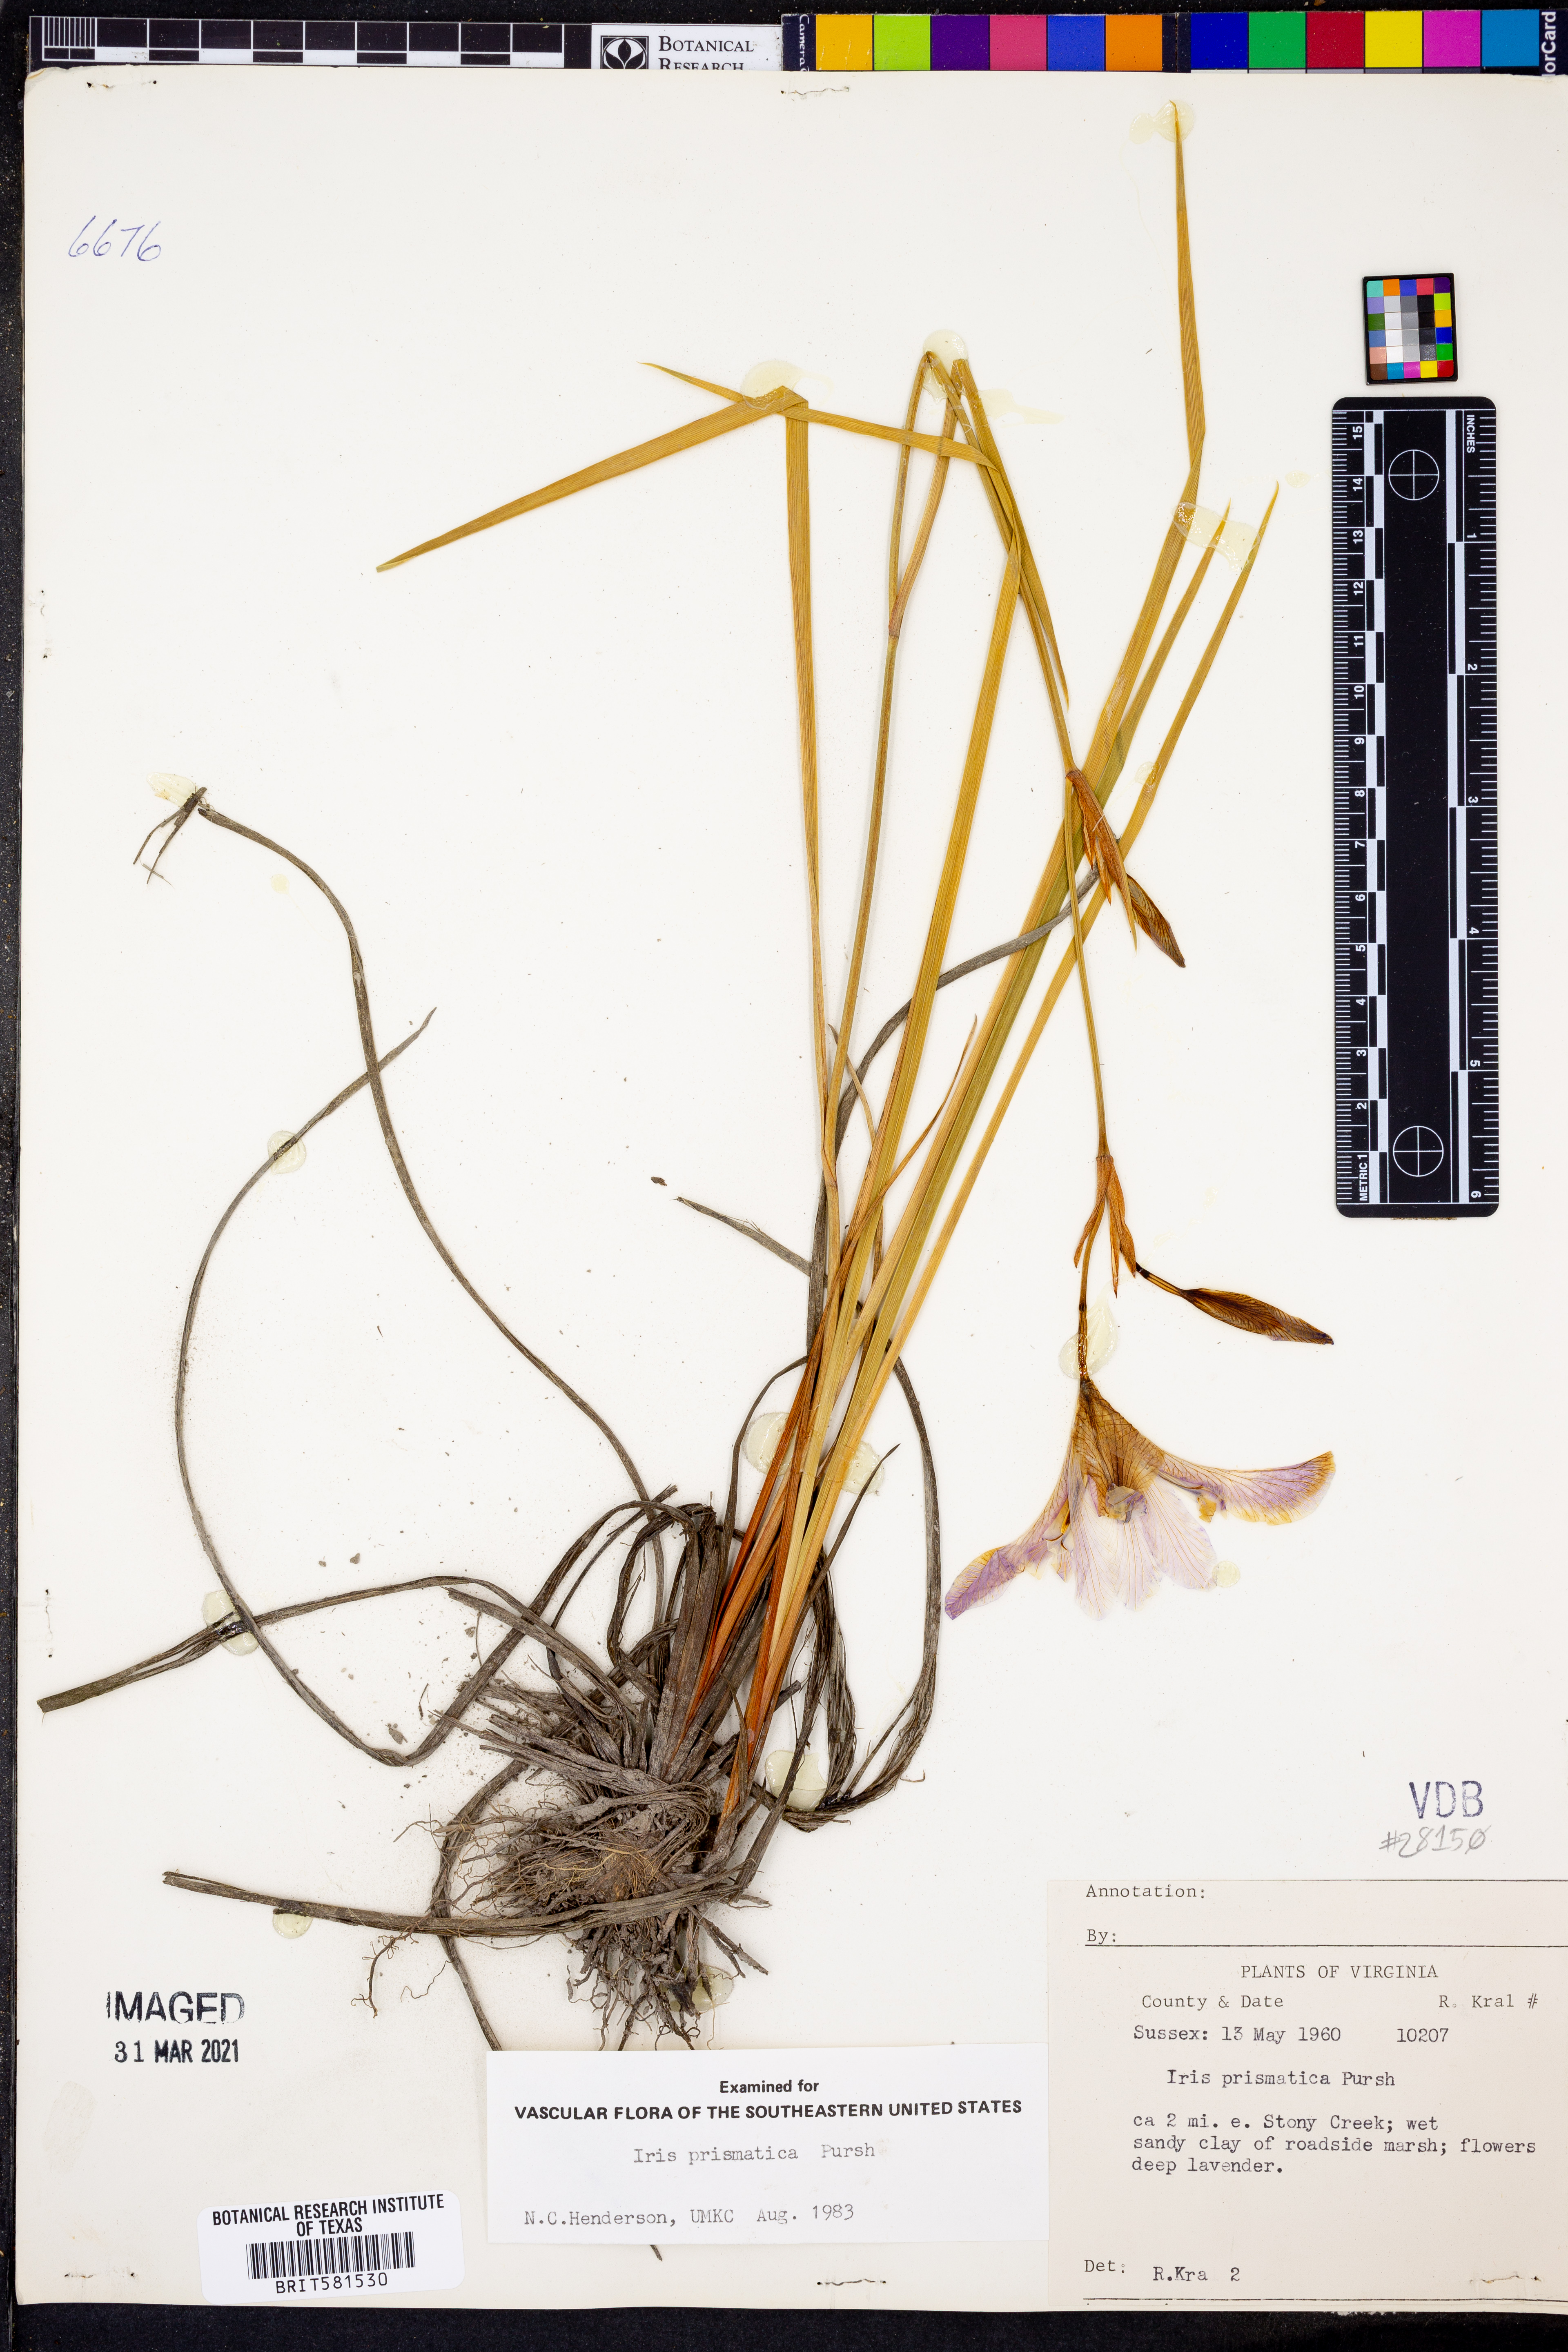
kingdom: Plantae
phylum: Tracheophyta
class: Liliopsida
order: Asparagales
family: Iridaceae
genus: Iris
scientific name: Iris prismatica
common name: Slender blue flag
